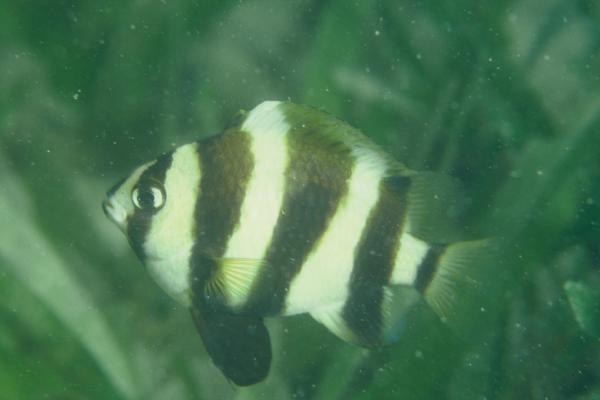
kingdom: Animalia
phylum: Chordata
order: Perciformes
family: Pomacentridae
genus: Chrysiptera
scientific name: Chrysiptera annulata
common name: Footballer demoiselle
